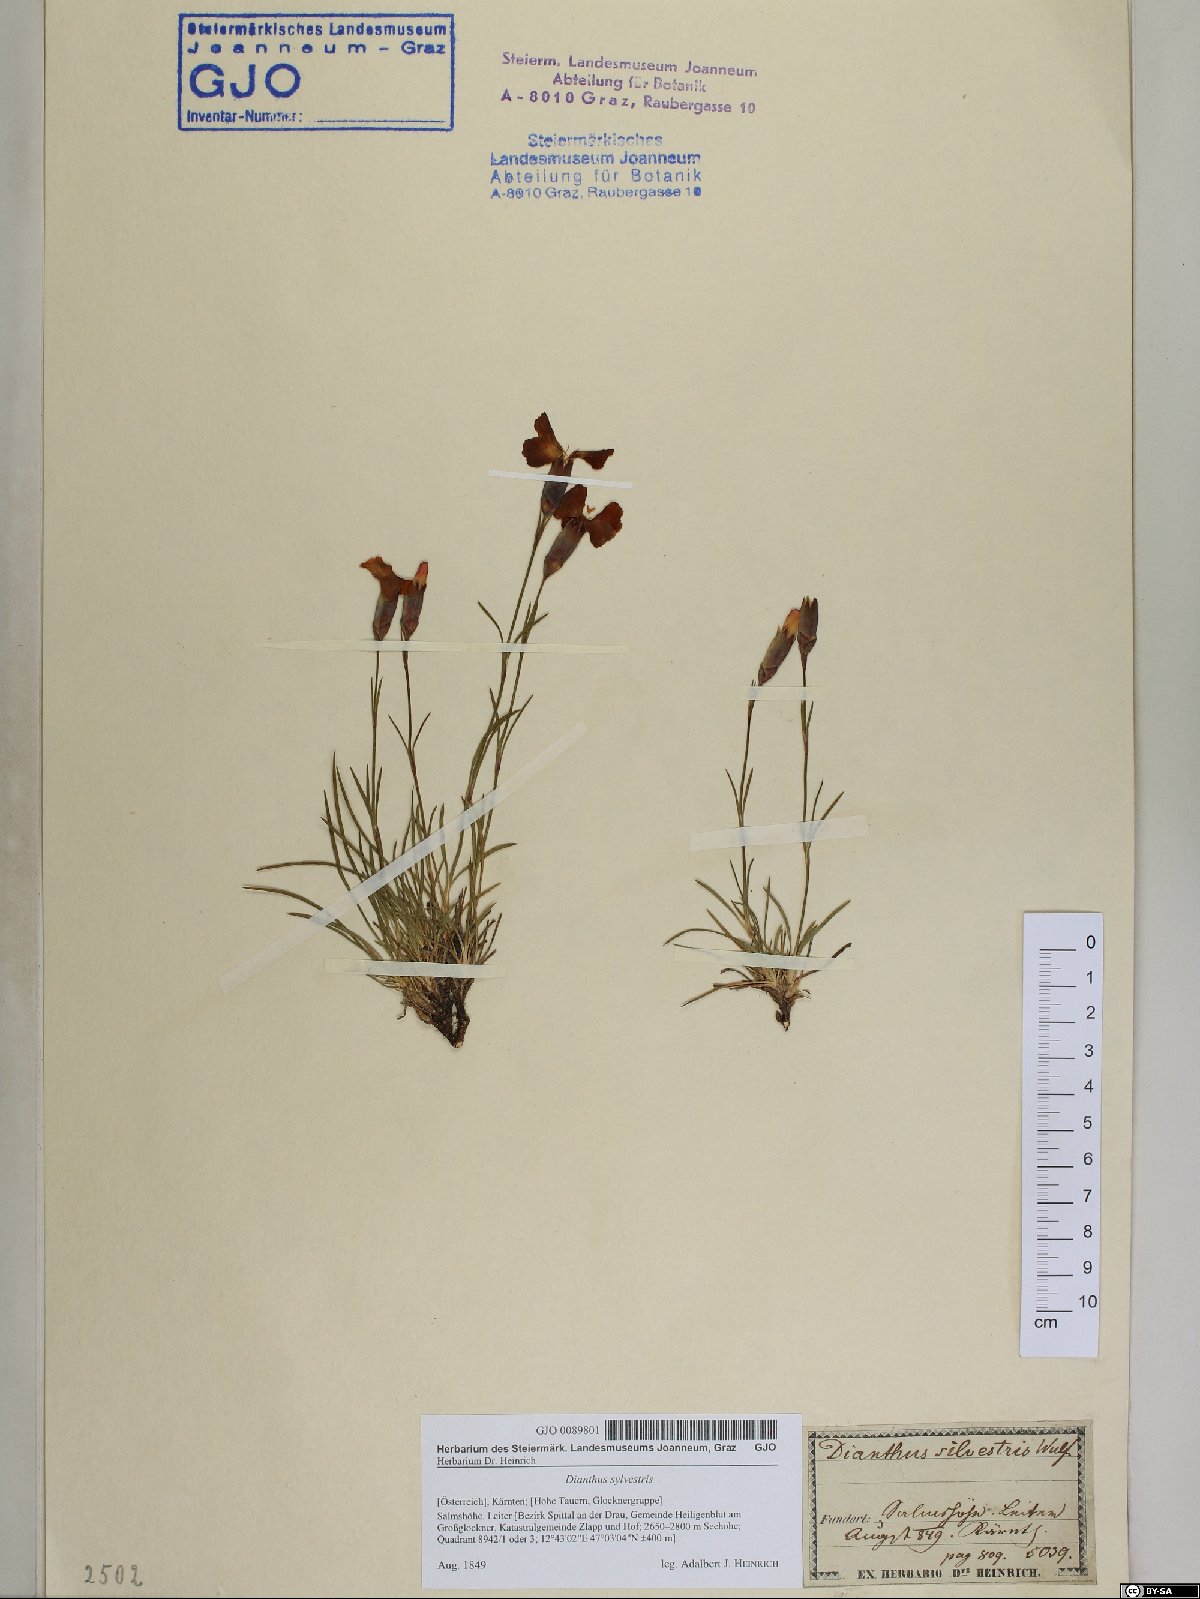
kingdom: Plantae
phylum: Tracheophyta
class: Magnoliopsida
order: Caryophyllales
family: Caryophyllaceae
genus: Dianthus
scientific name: Dianthus sylvestris
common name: Wood pink
